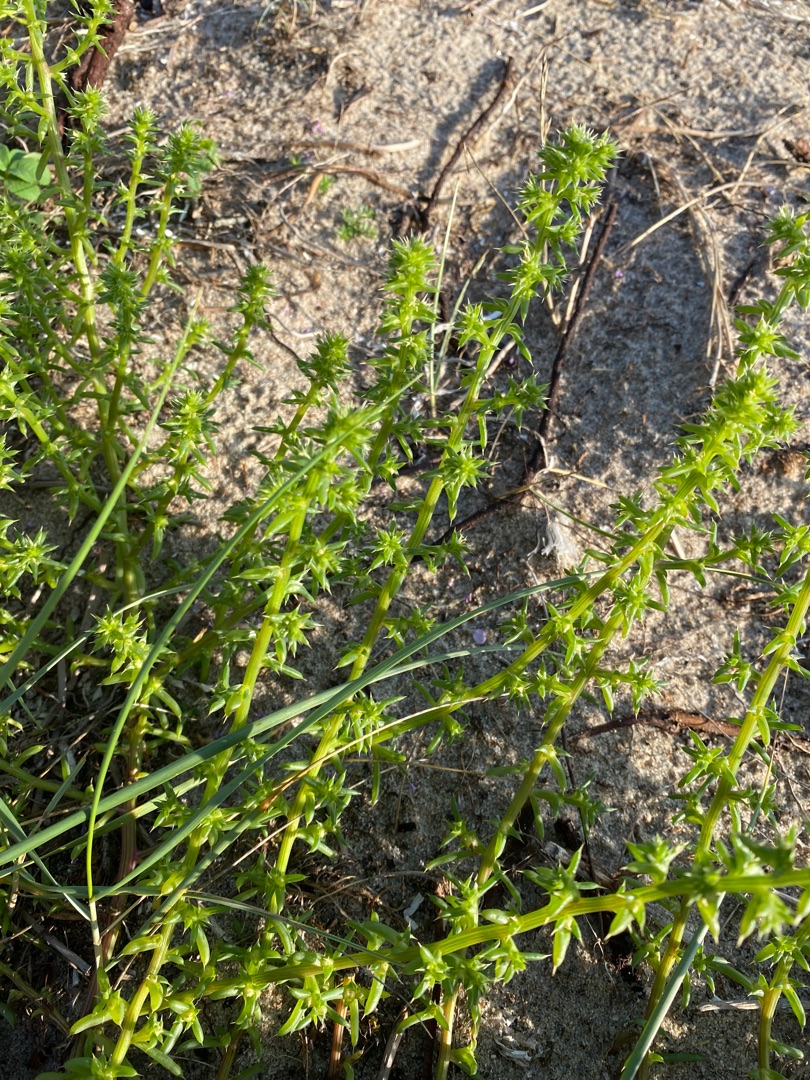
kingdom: Plantae
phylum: Tracheophyta
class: Magnoliopsida
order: Caryophyllales
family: Amaranthaceae
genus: Salsola
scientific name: Salsola kali
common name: Sodaurt
